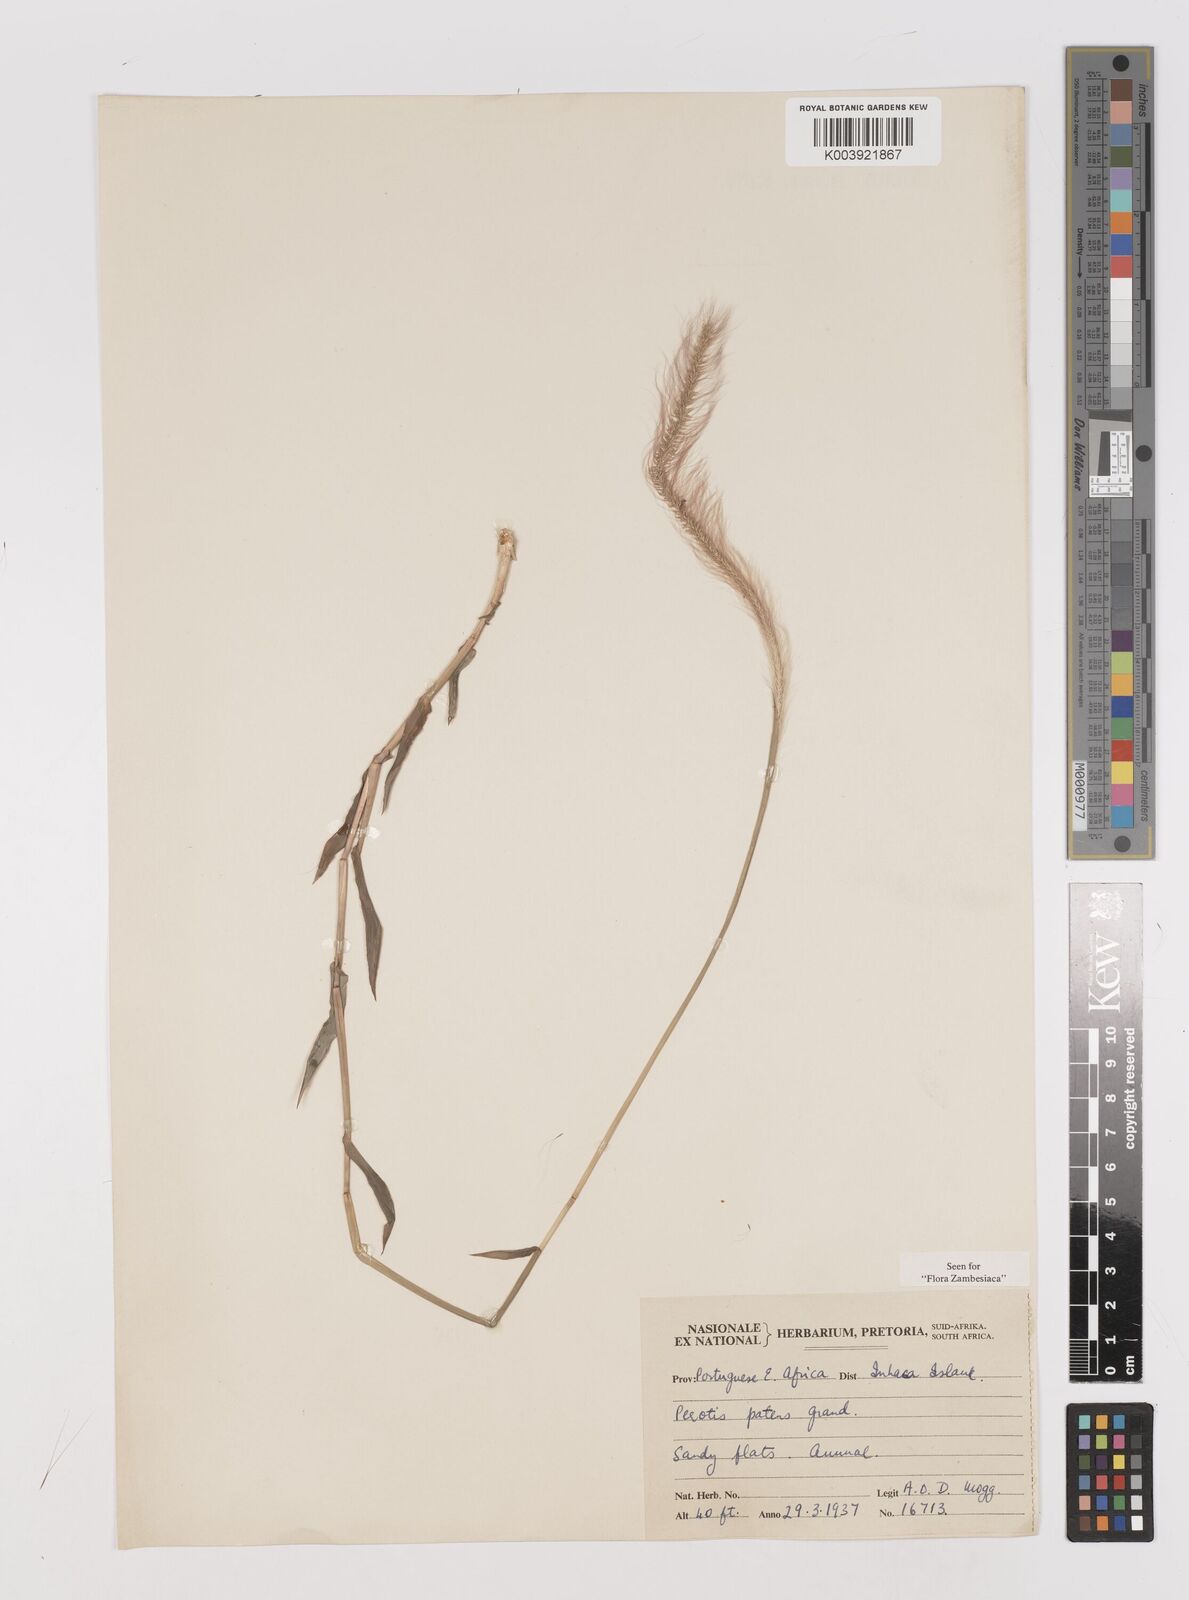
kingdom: Plantae
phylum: Tracheophyta
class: Liliopsida
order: Poales
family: Poaceae
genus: Perotis
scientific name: Perotis patens
